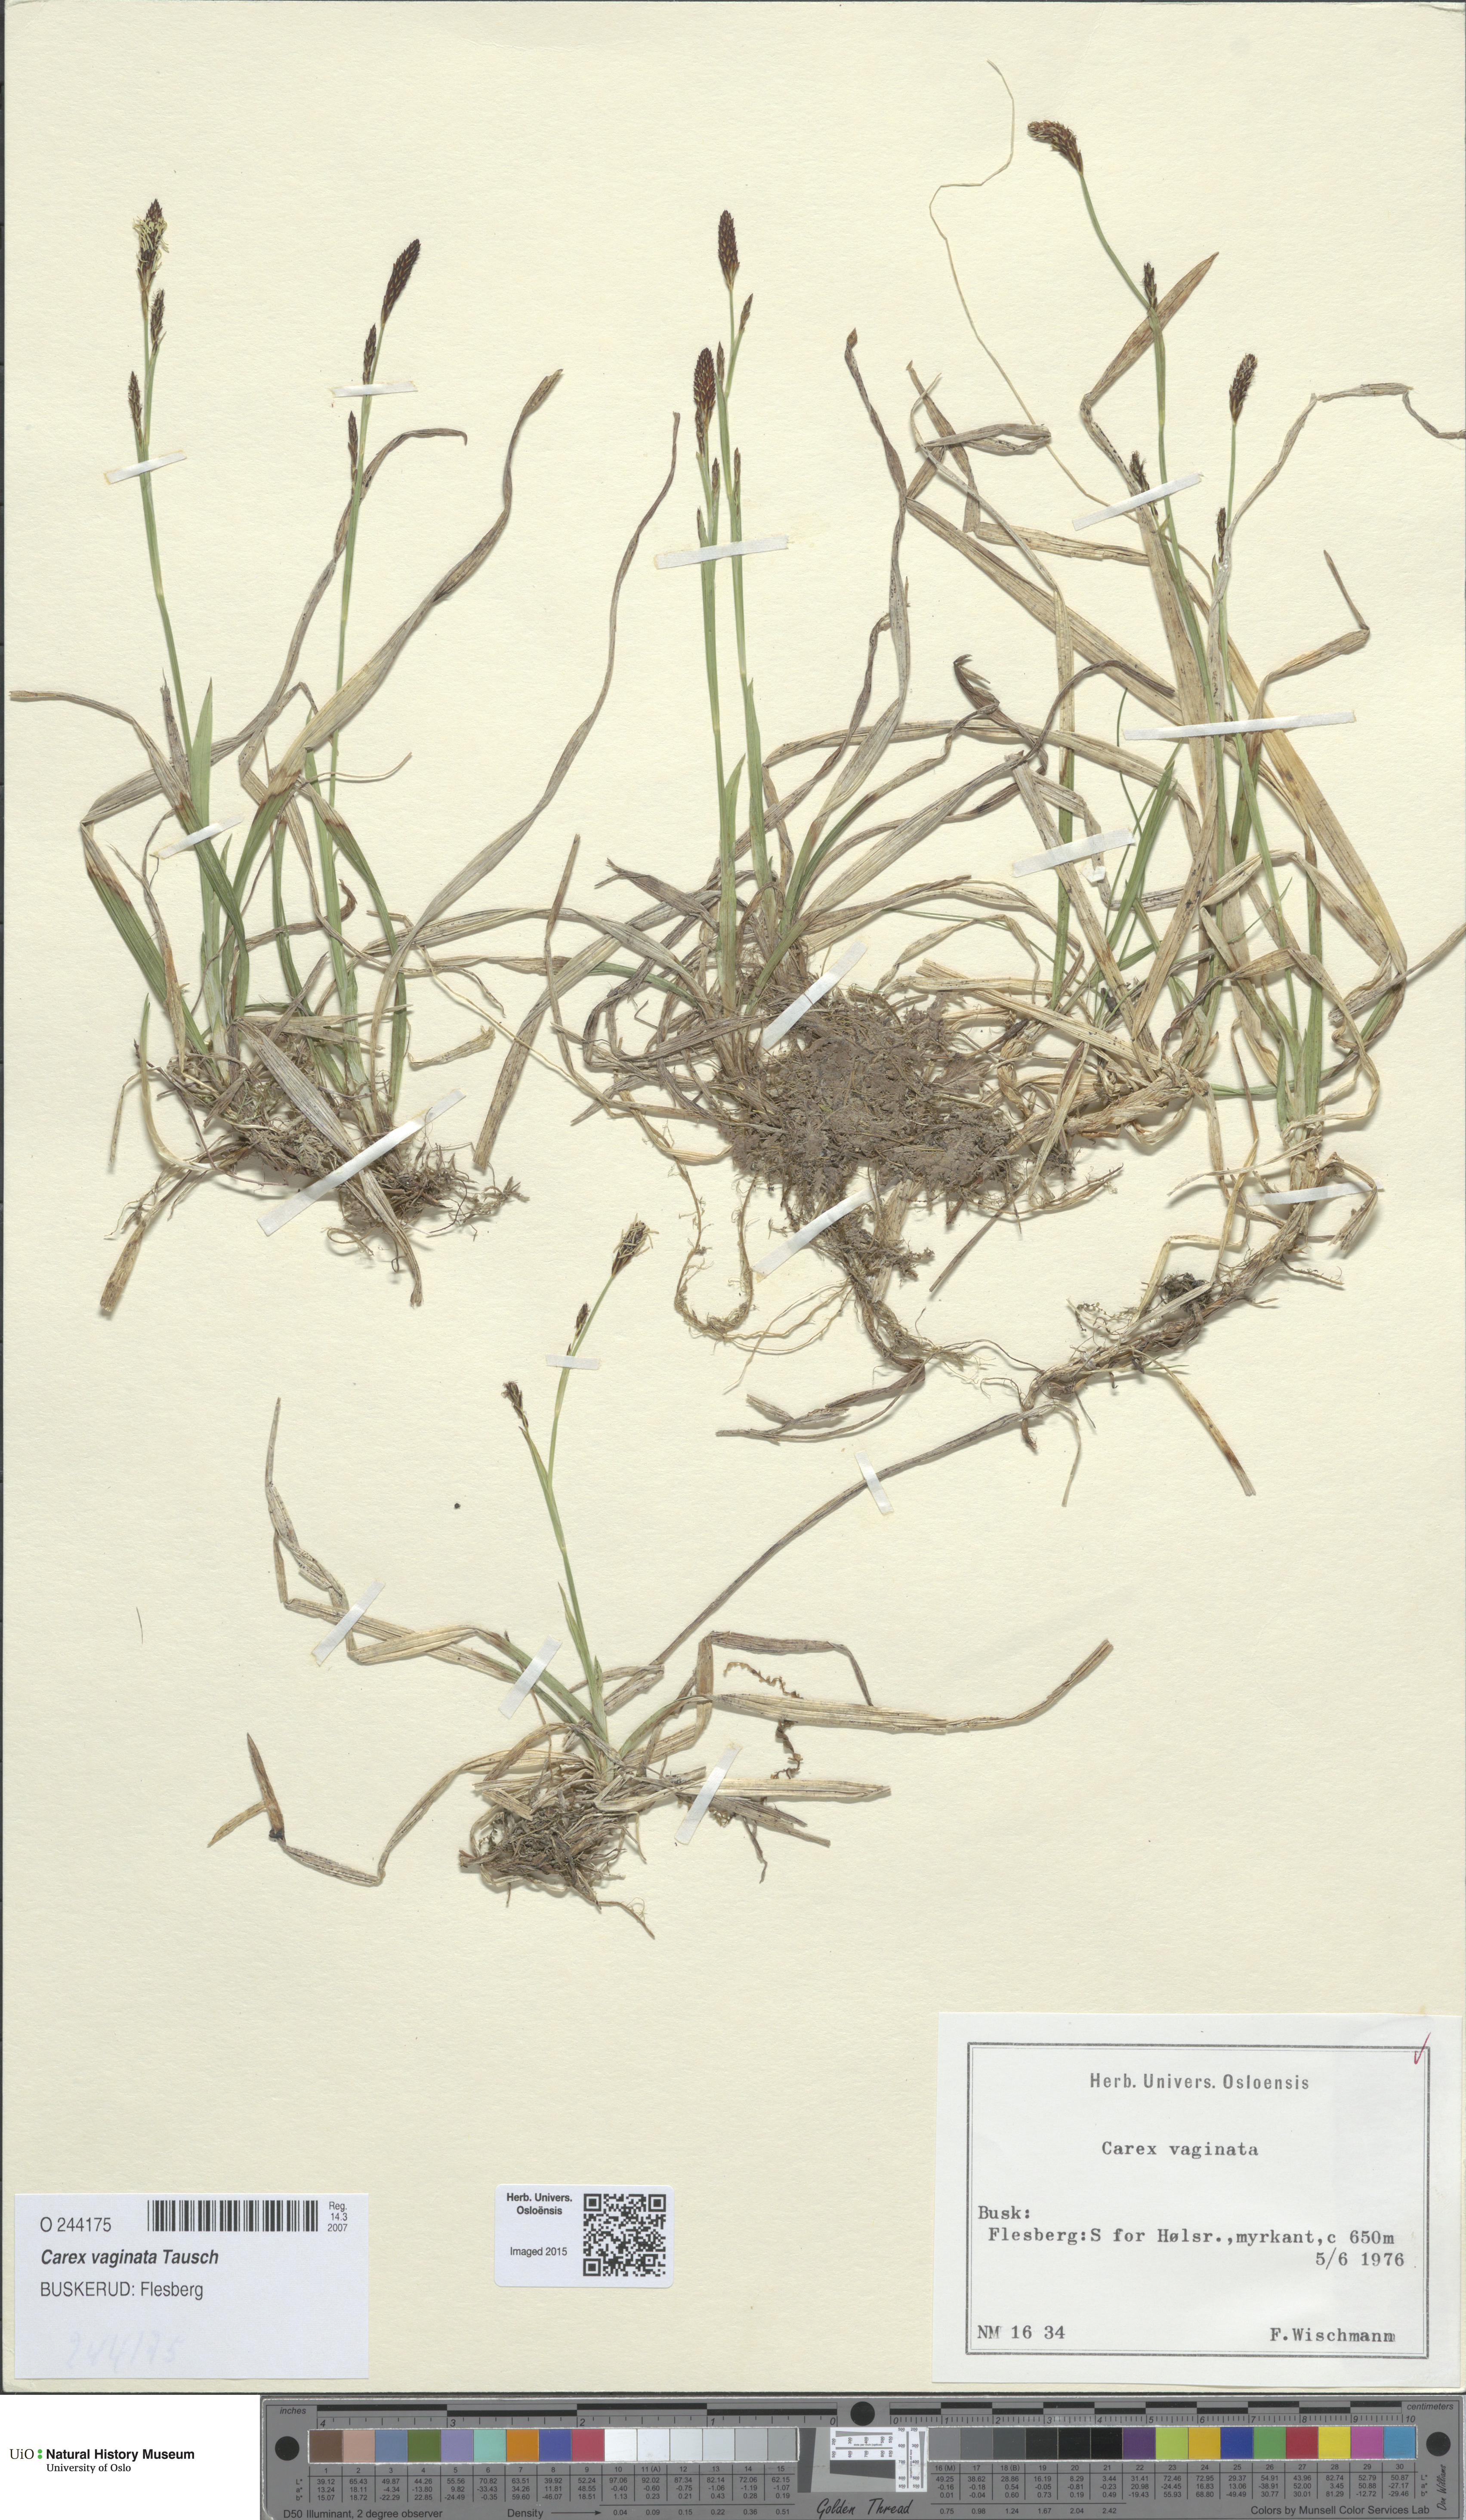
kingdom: Plantae
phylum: Tracheophyta
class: Liliopsida
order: Poales
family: Cyperaceae
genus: Carex
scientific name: Carex vaginata
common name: Sheathed sedge
